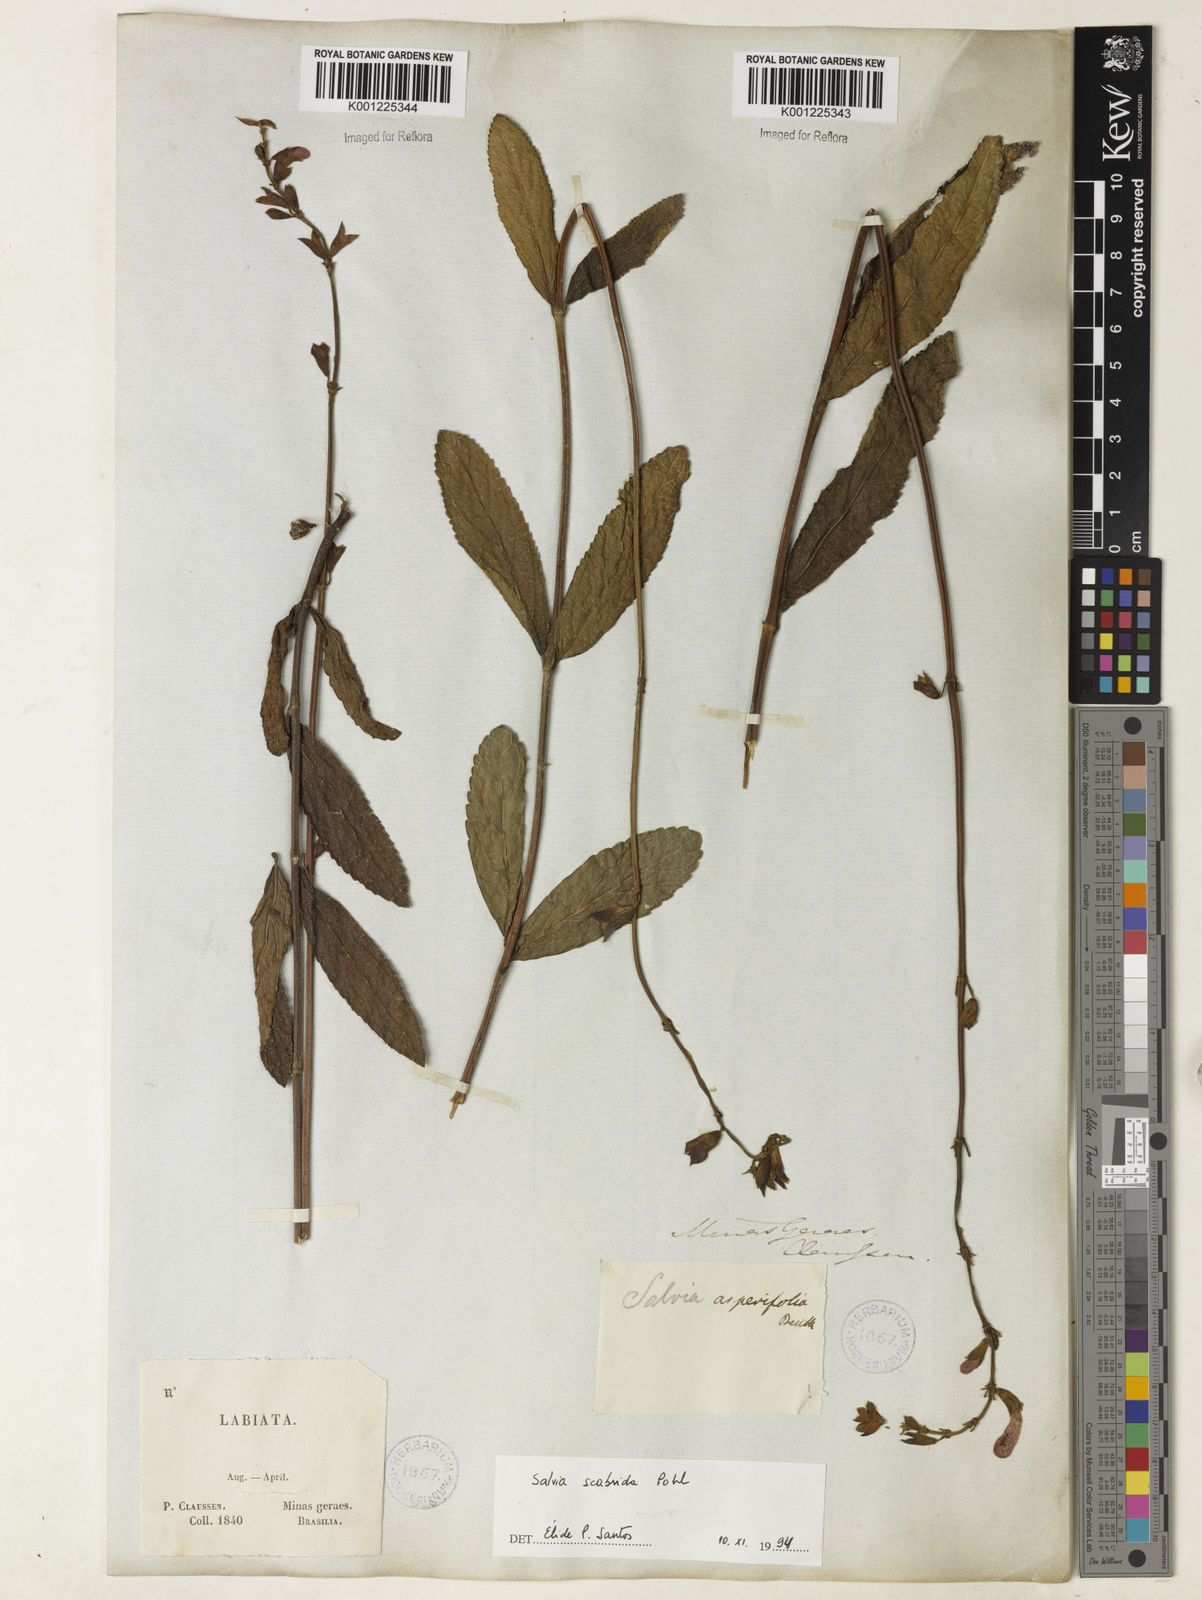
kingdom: Plantae
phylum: Tracheophyta
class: Magnoliopsida
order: Lamiales
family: Lamiaceae
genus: Salvia
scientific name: Salvia scabrida
